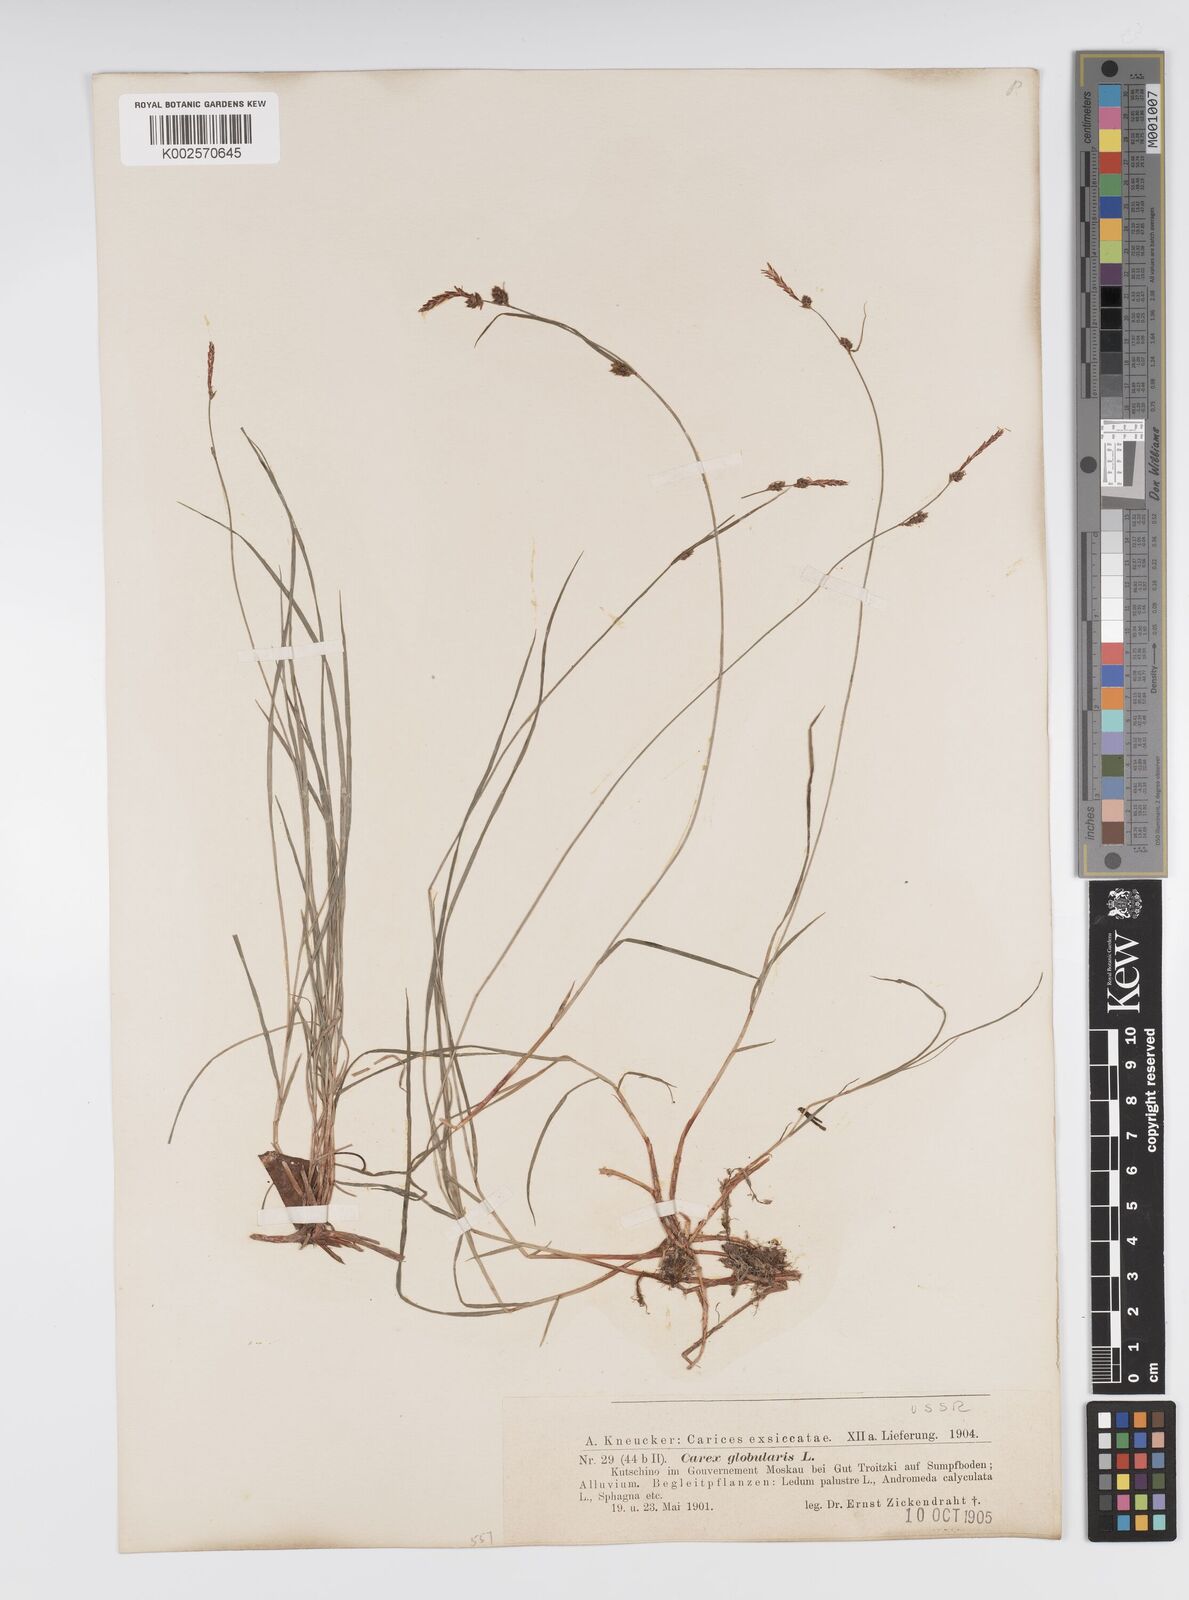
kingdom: Plantae
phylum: Tracheophyta
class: Liliopsida
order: Poales
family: Cyperaceae
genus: Carex
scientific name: Carex globularis
